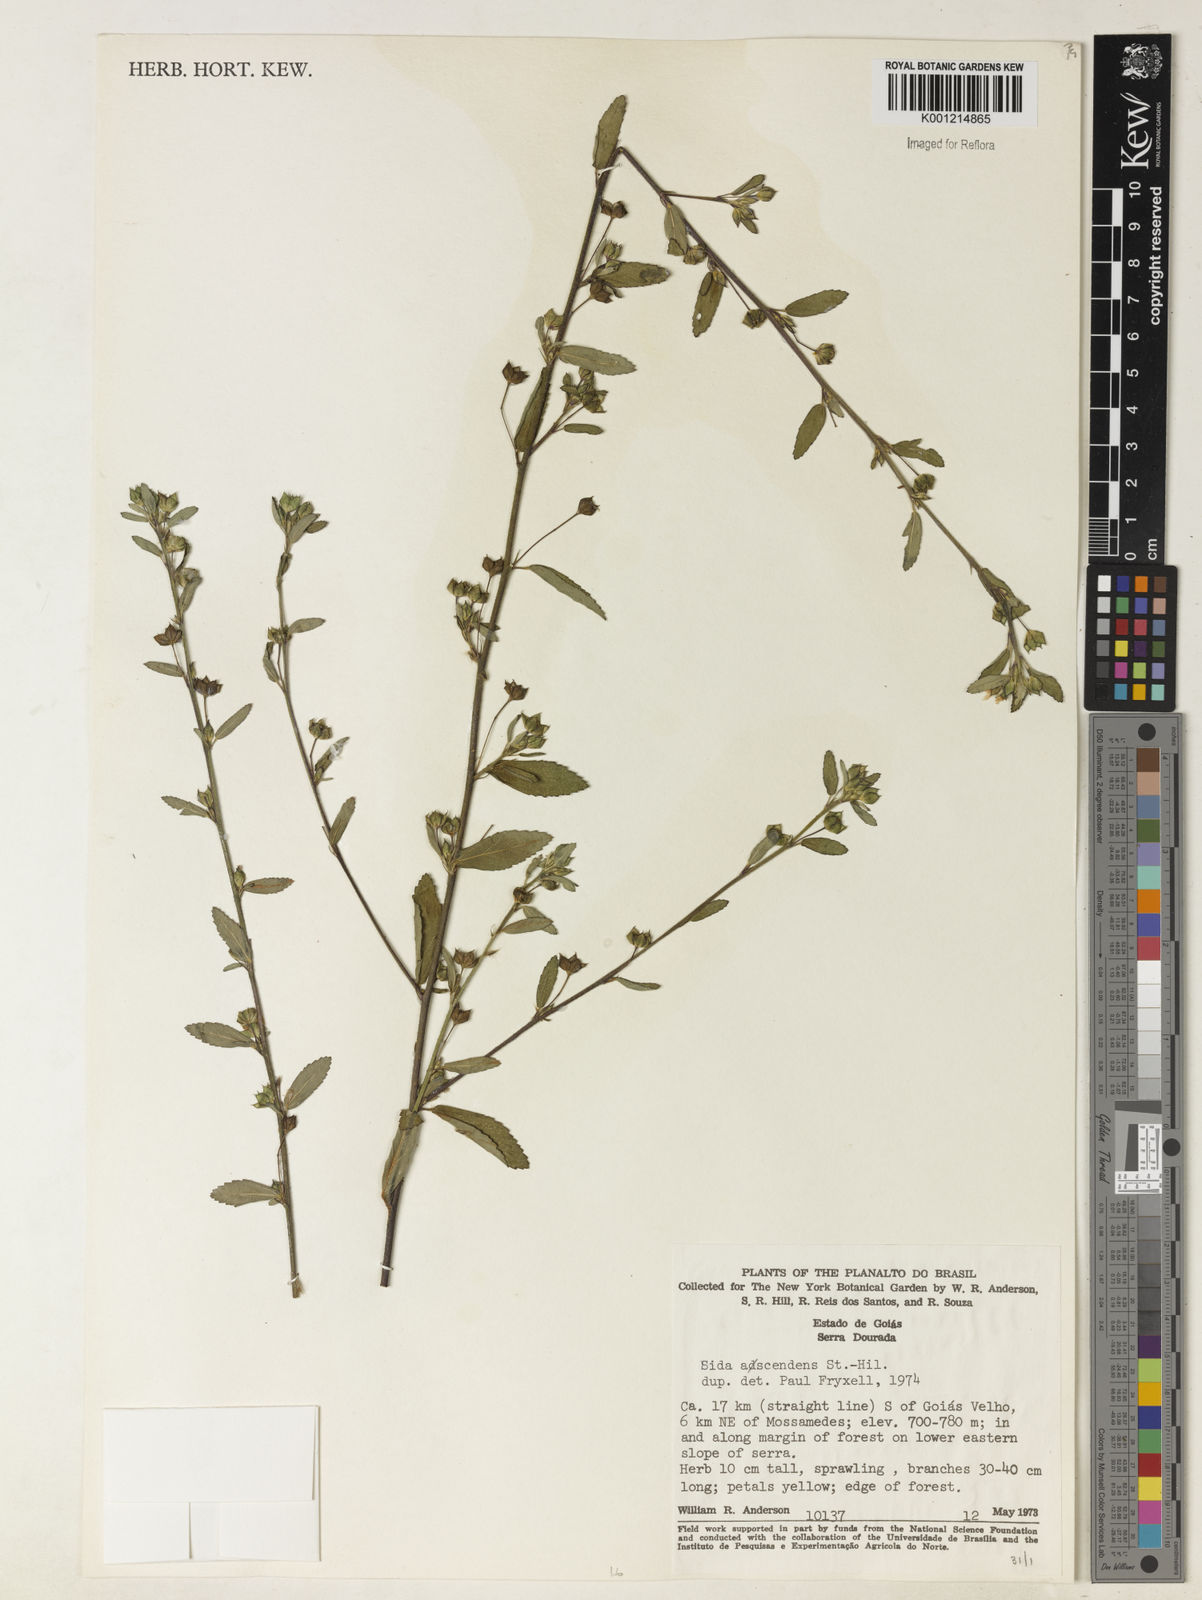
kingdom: Plantae
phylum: Tracheophyta
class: Magnoliopsida
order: Malvales
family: Malvaceae
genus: Sida
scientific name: Sida adscendens
